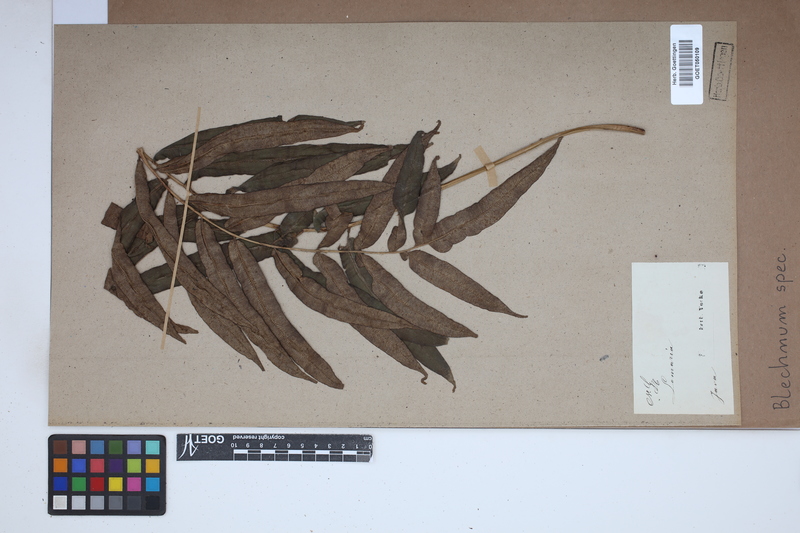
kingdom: Plantae
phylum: Tracheophyta
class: Polypodiopsida
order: Polypodiales
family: Blechnaceae
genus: Blechnum
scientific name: Blechnum
